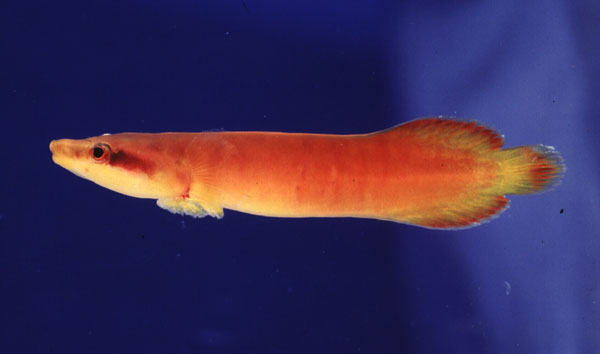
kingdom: Animalia
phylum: Chordata
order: Gobiesociformes
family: Gobiesocidae
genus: Lepadichthys
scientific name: Lepadichthys coccinotaenia
